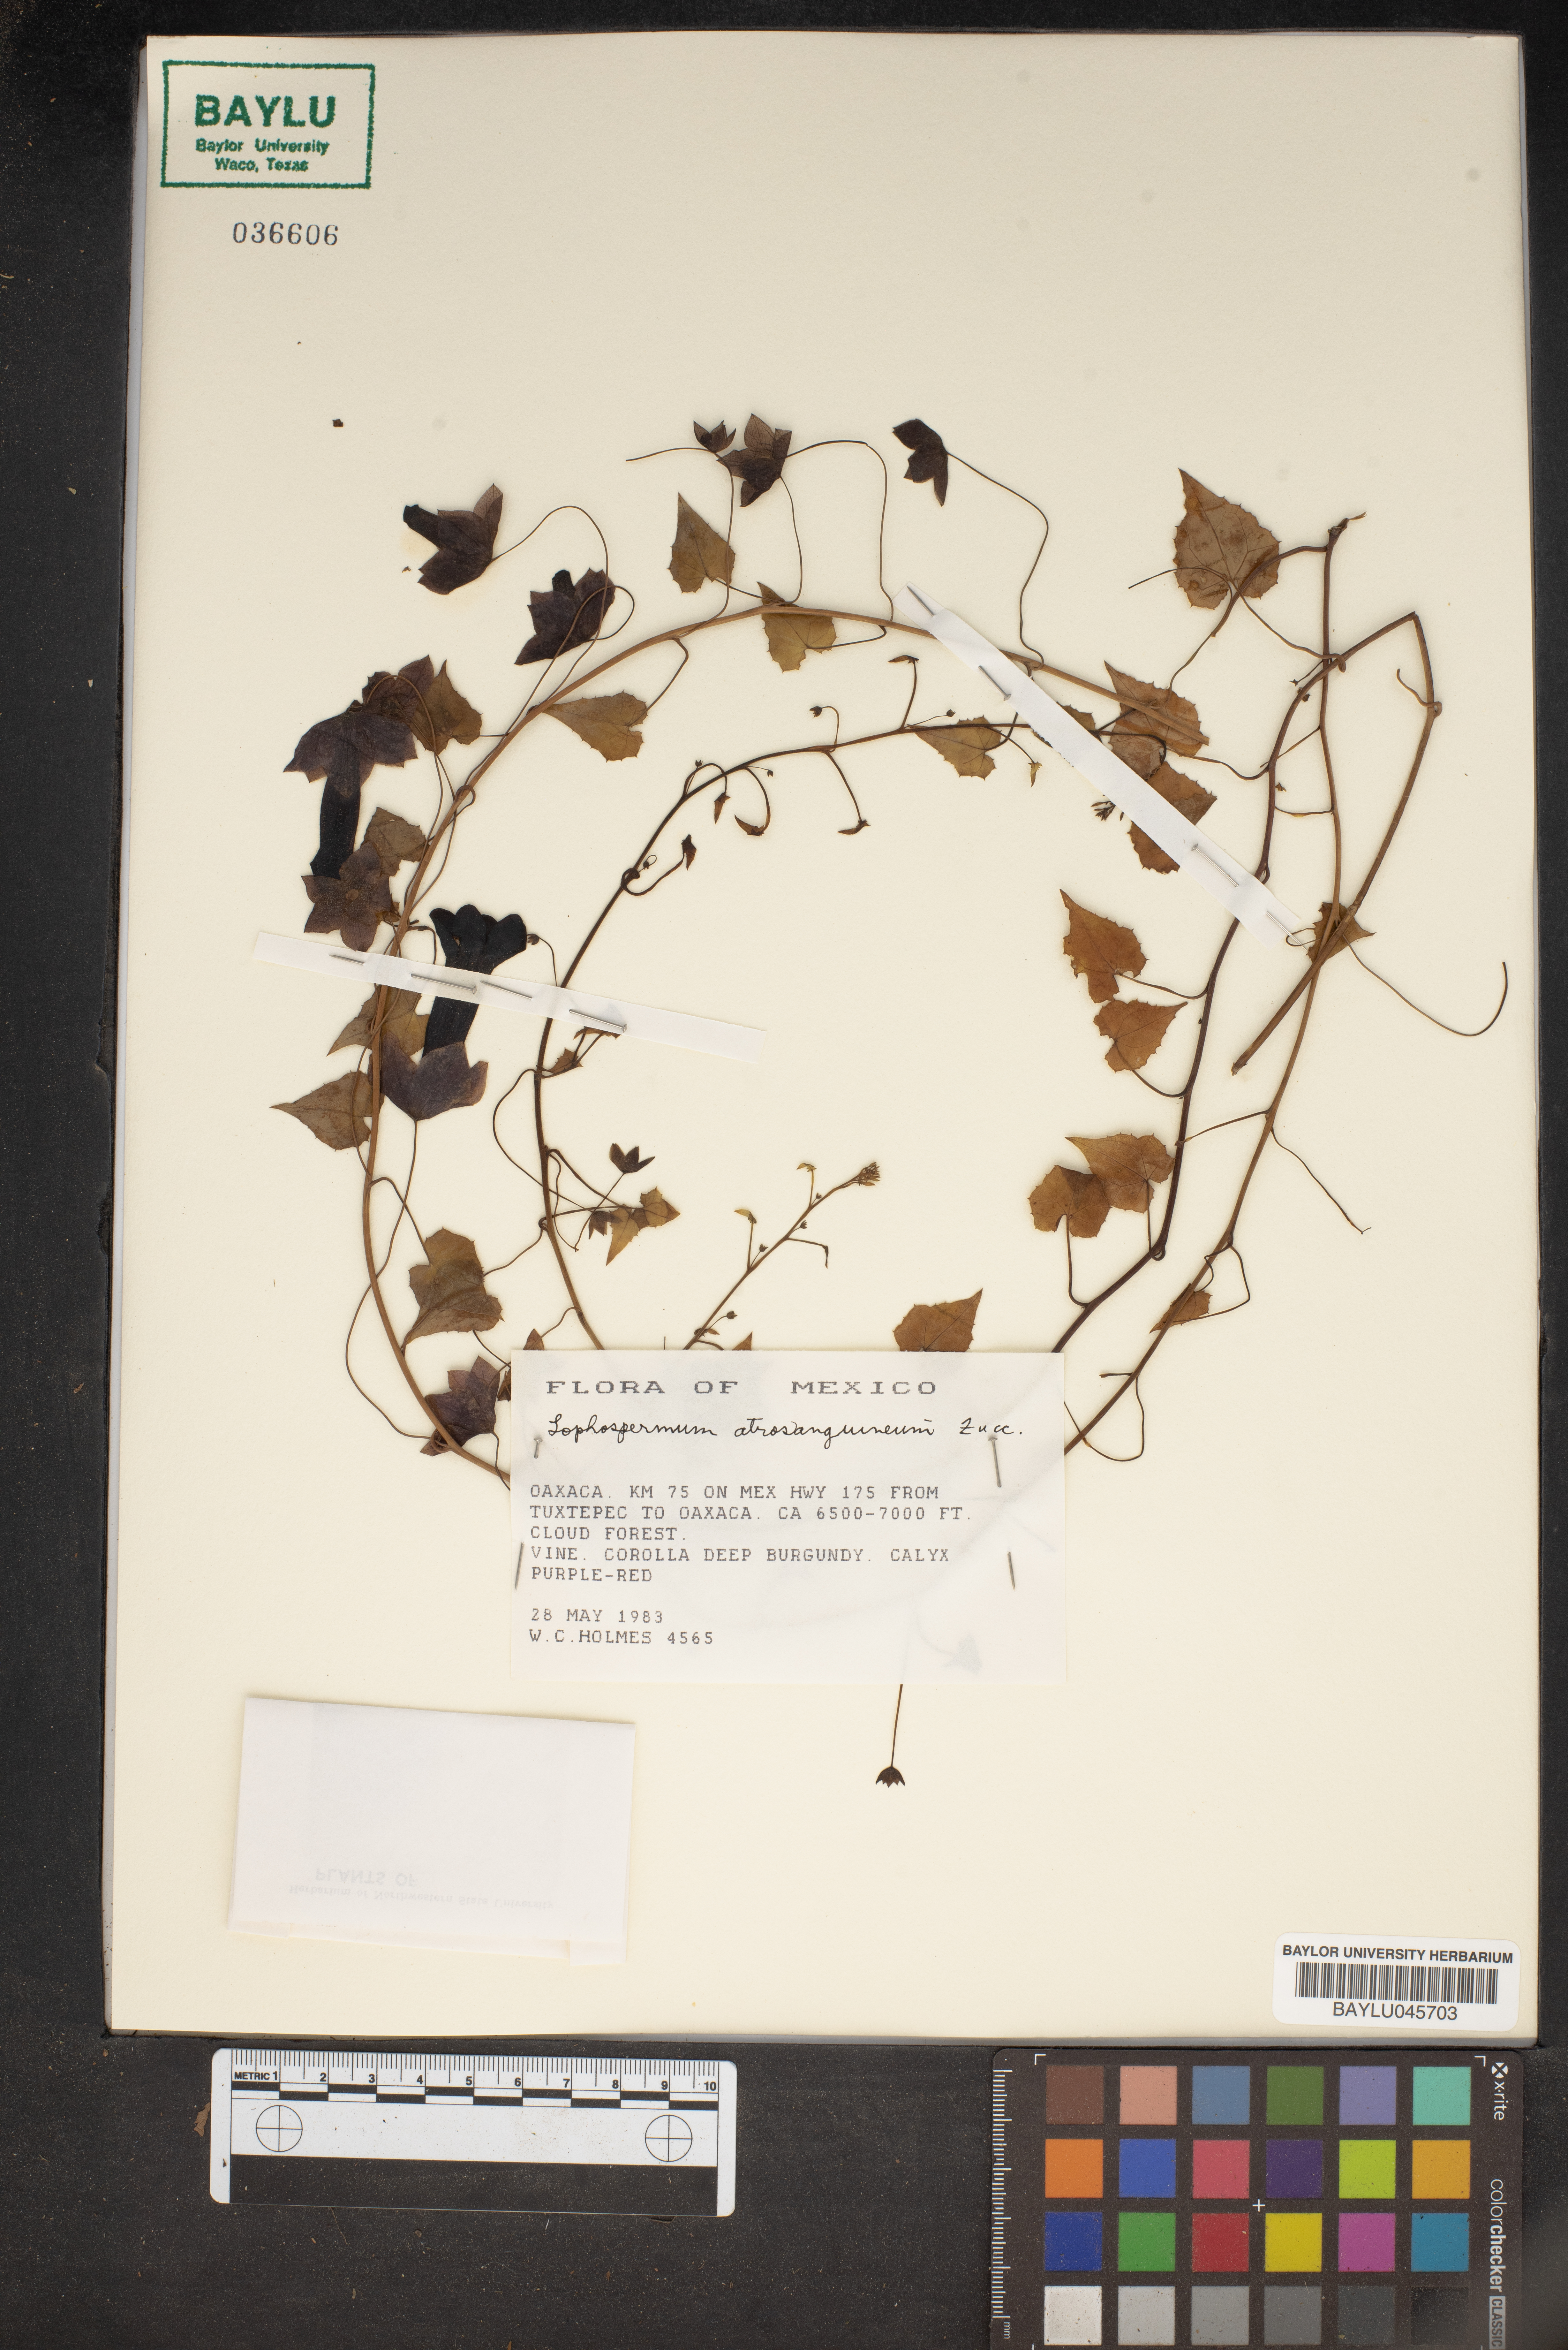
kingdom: Plantae
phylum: Tracheophyta
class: Magnoliopsida
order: Lamiales
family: Plantaginaceae
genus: Rhodochiton
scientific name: Rhodochiton atrosanguineus
